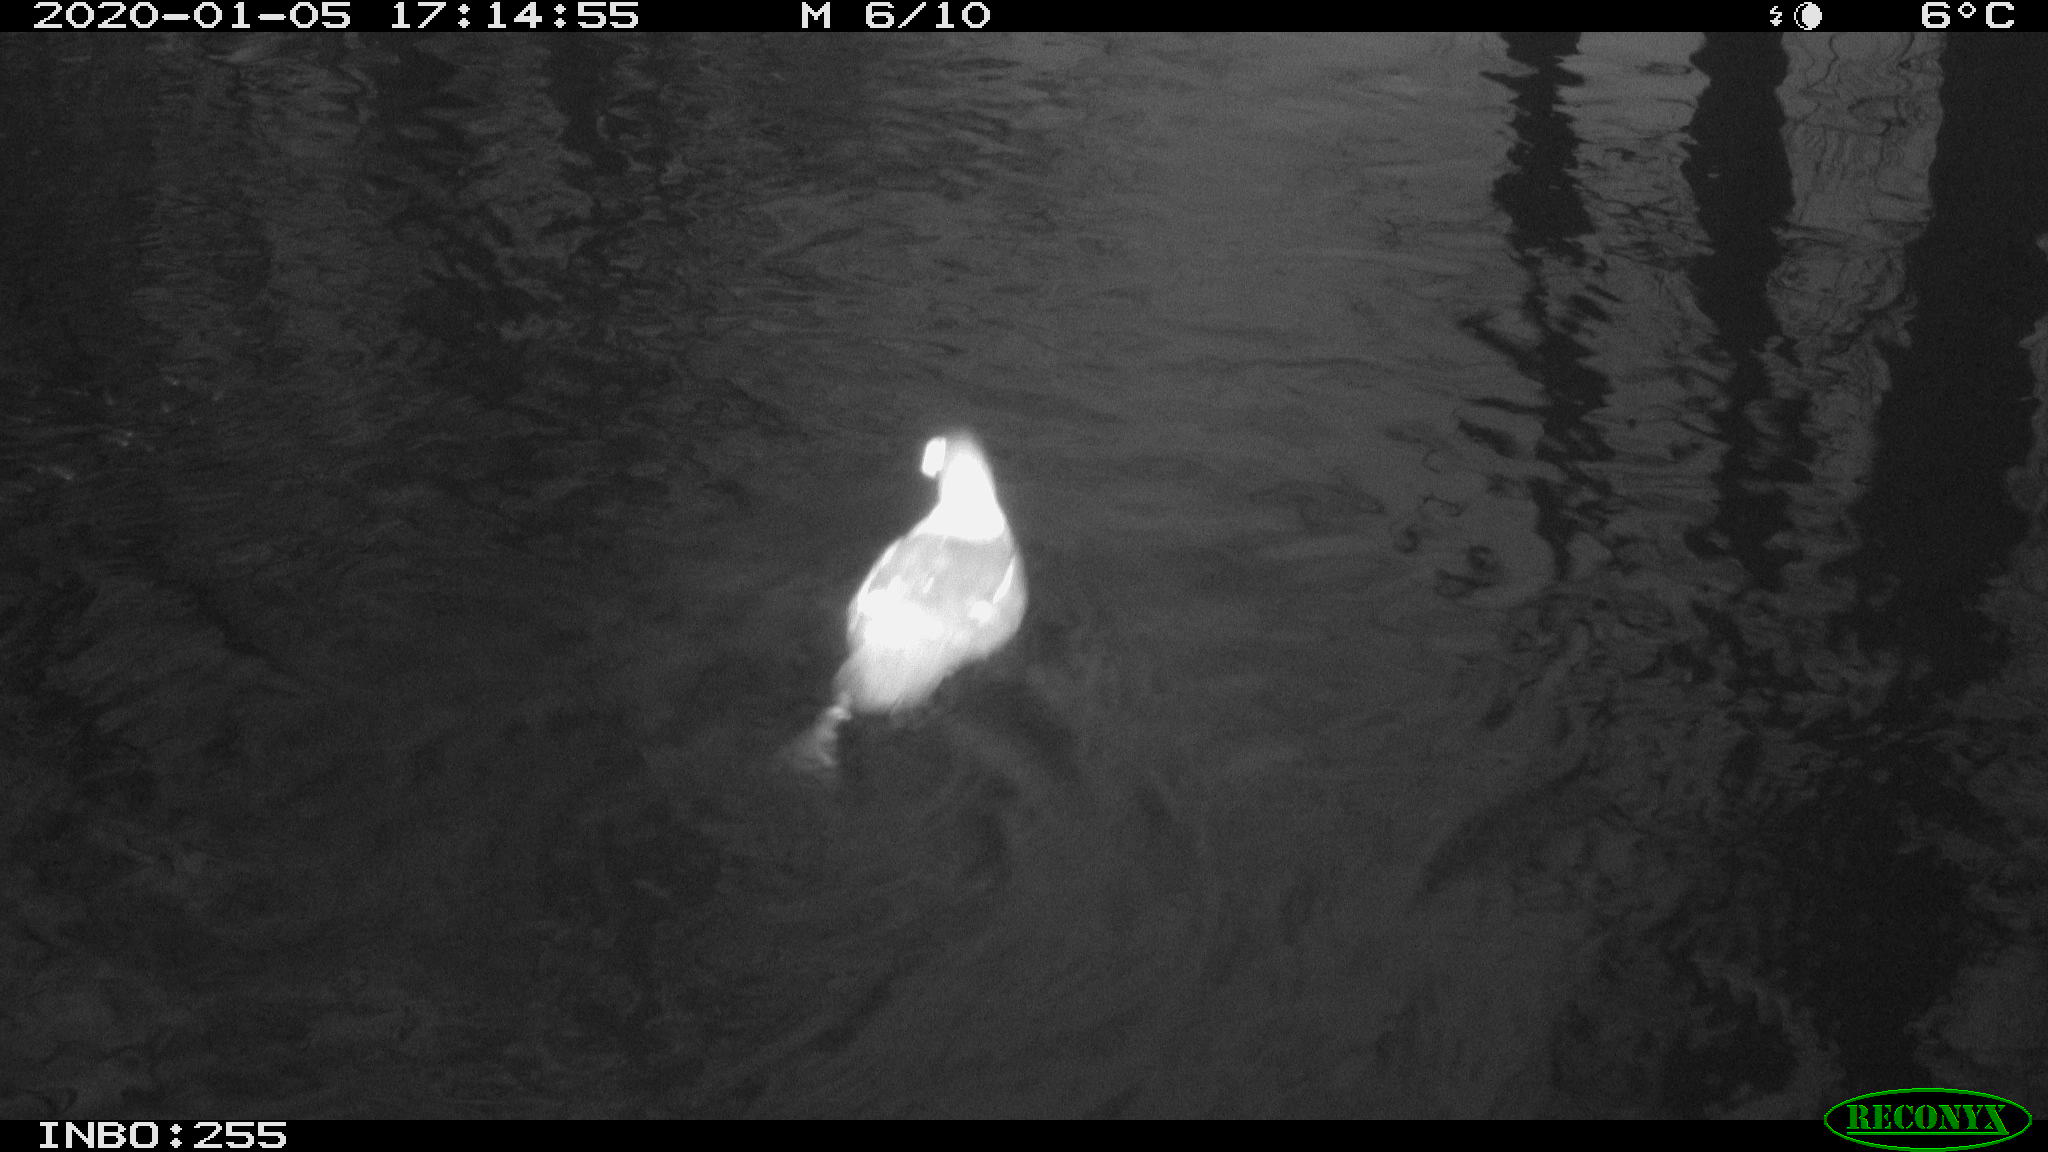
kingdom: Animalia
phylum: Chordata
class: Aves
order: Gruiformes
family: Rallidae
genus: Gallinula
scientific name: Gallinula chloropus
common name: Common moorhen
